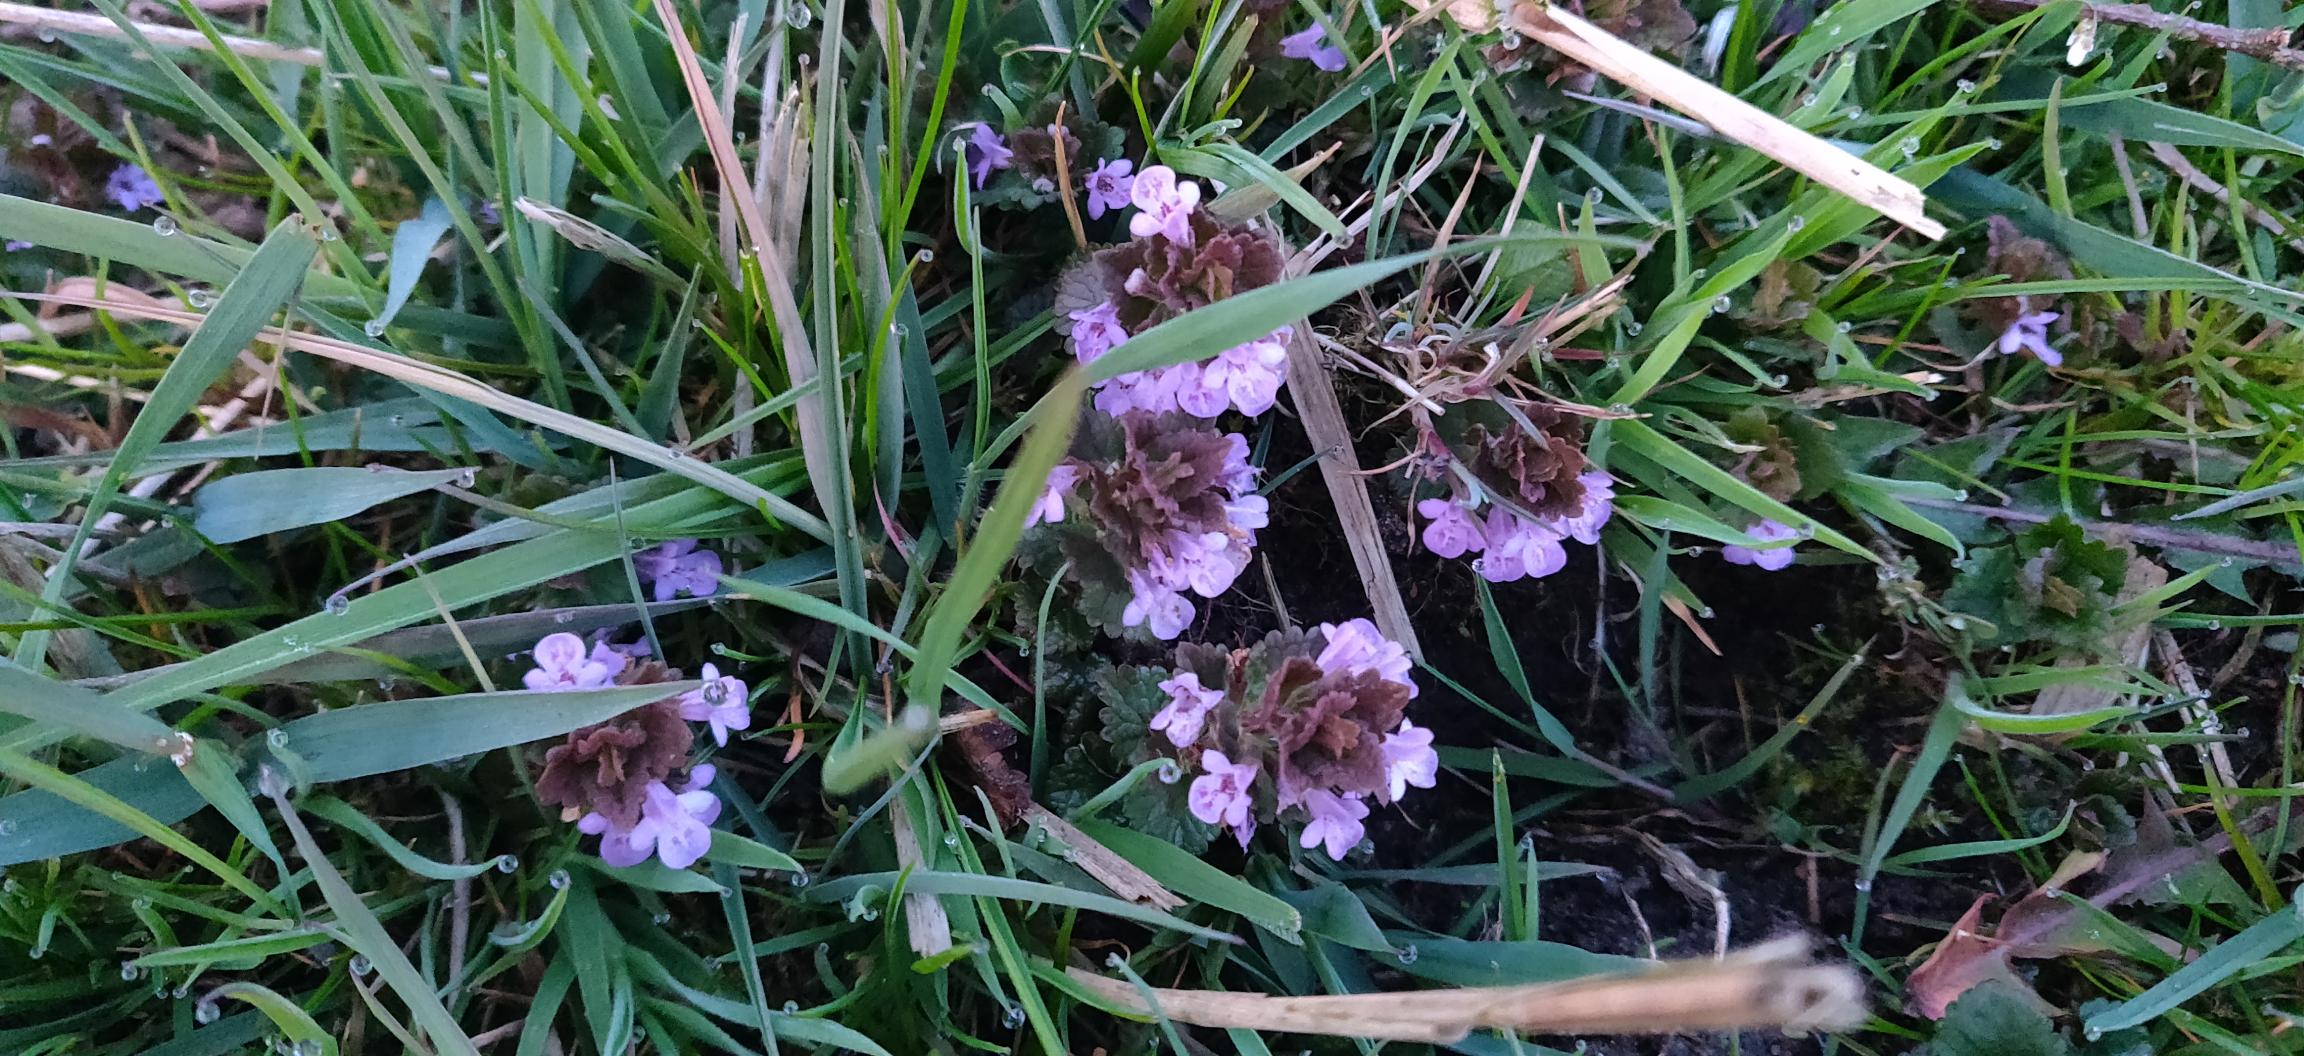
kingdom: Plantae
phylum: Tracheophyta
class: Magnoliopsida
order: Lamiales
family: Lamiaceae
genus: Glechoma
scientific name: Glechoma hederacea
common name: Korsknap
